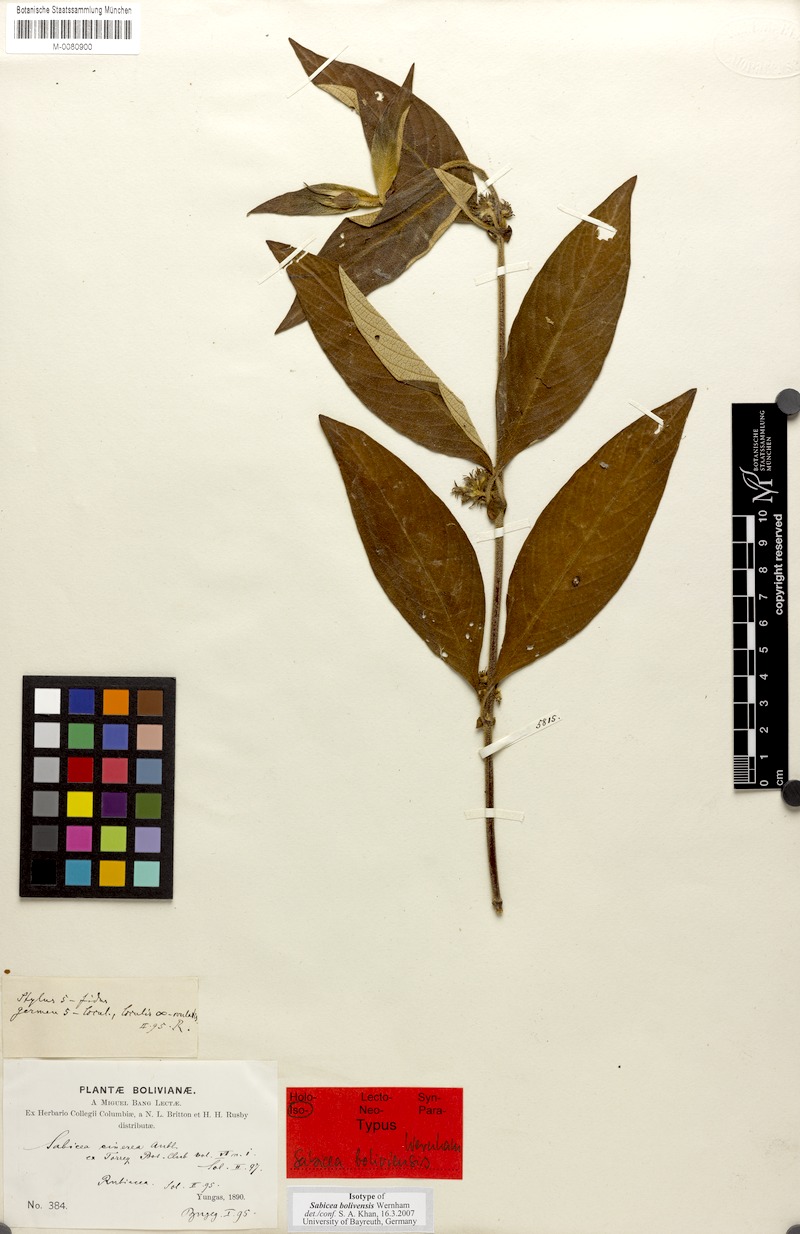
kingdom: Plantae
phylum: Tracheophyta
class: Magnoliopsida
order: Gentianales
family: Rubiaceae
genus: Sabicea
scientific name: Sabicea boliviensis
